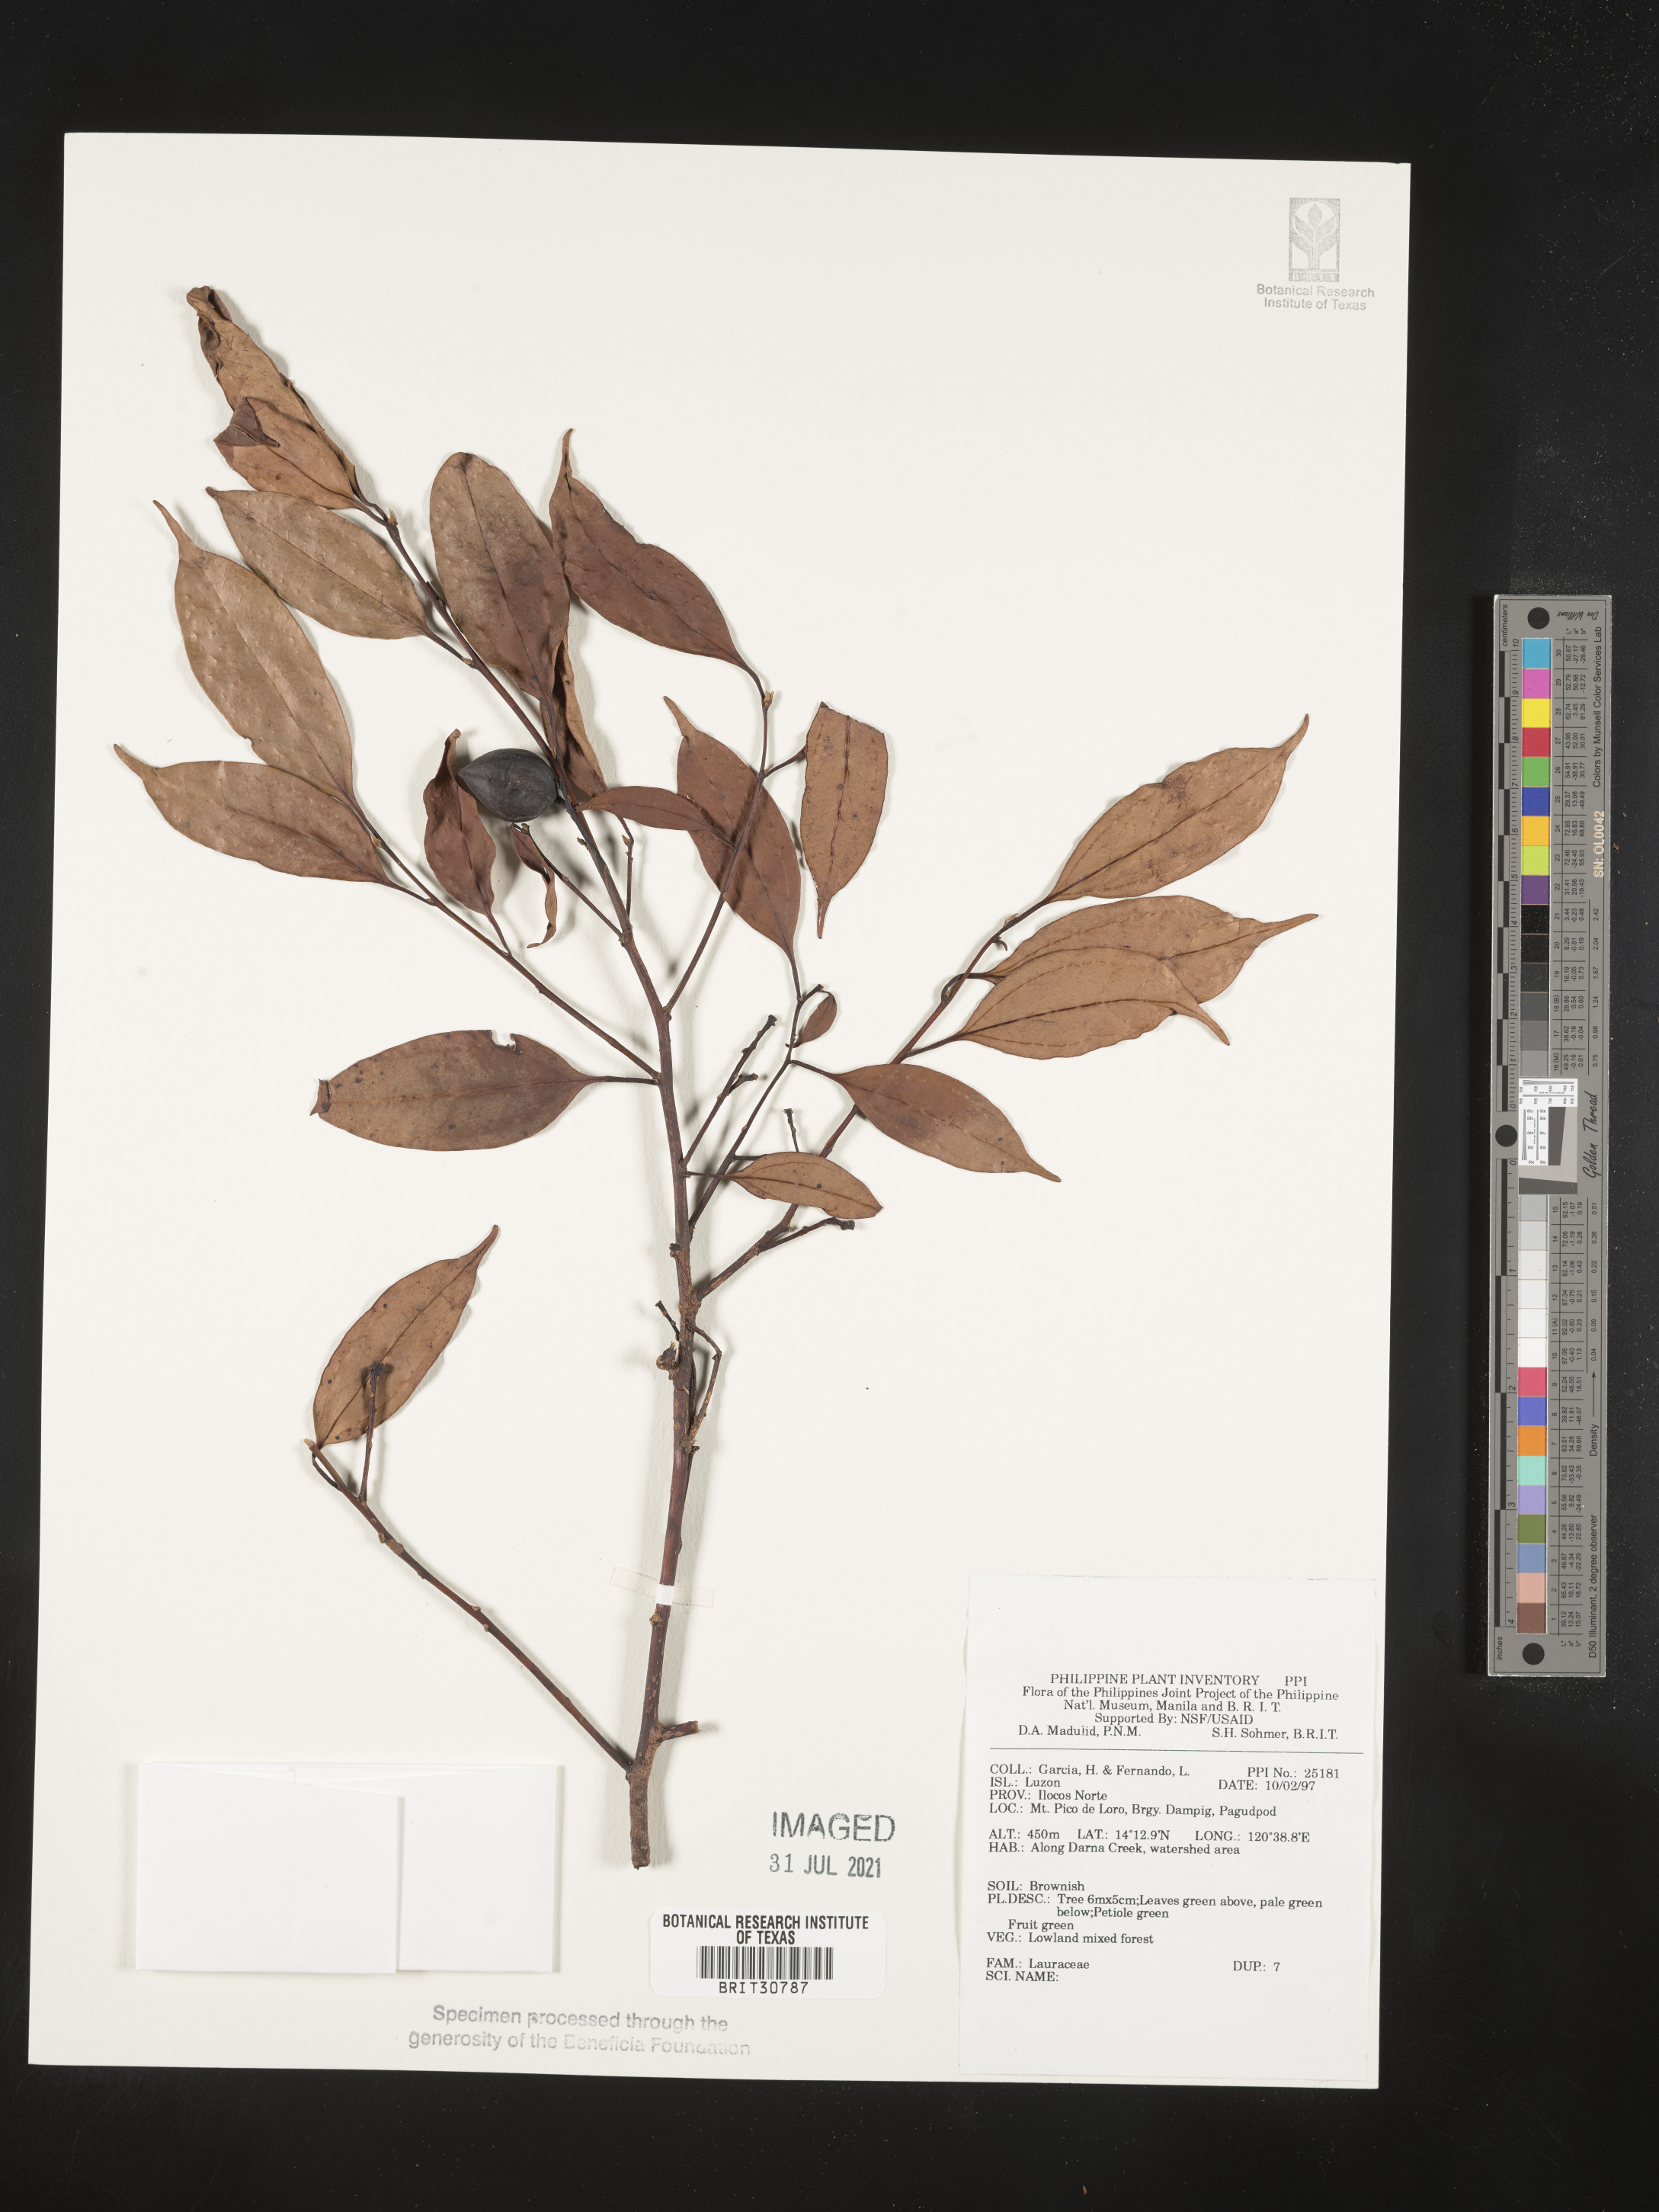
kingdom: Plantae
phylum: Tracheophyta
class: Magnoliopsida
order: Laurales
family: Lauraceae
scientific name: Lauraceae
